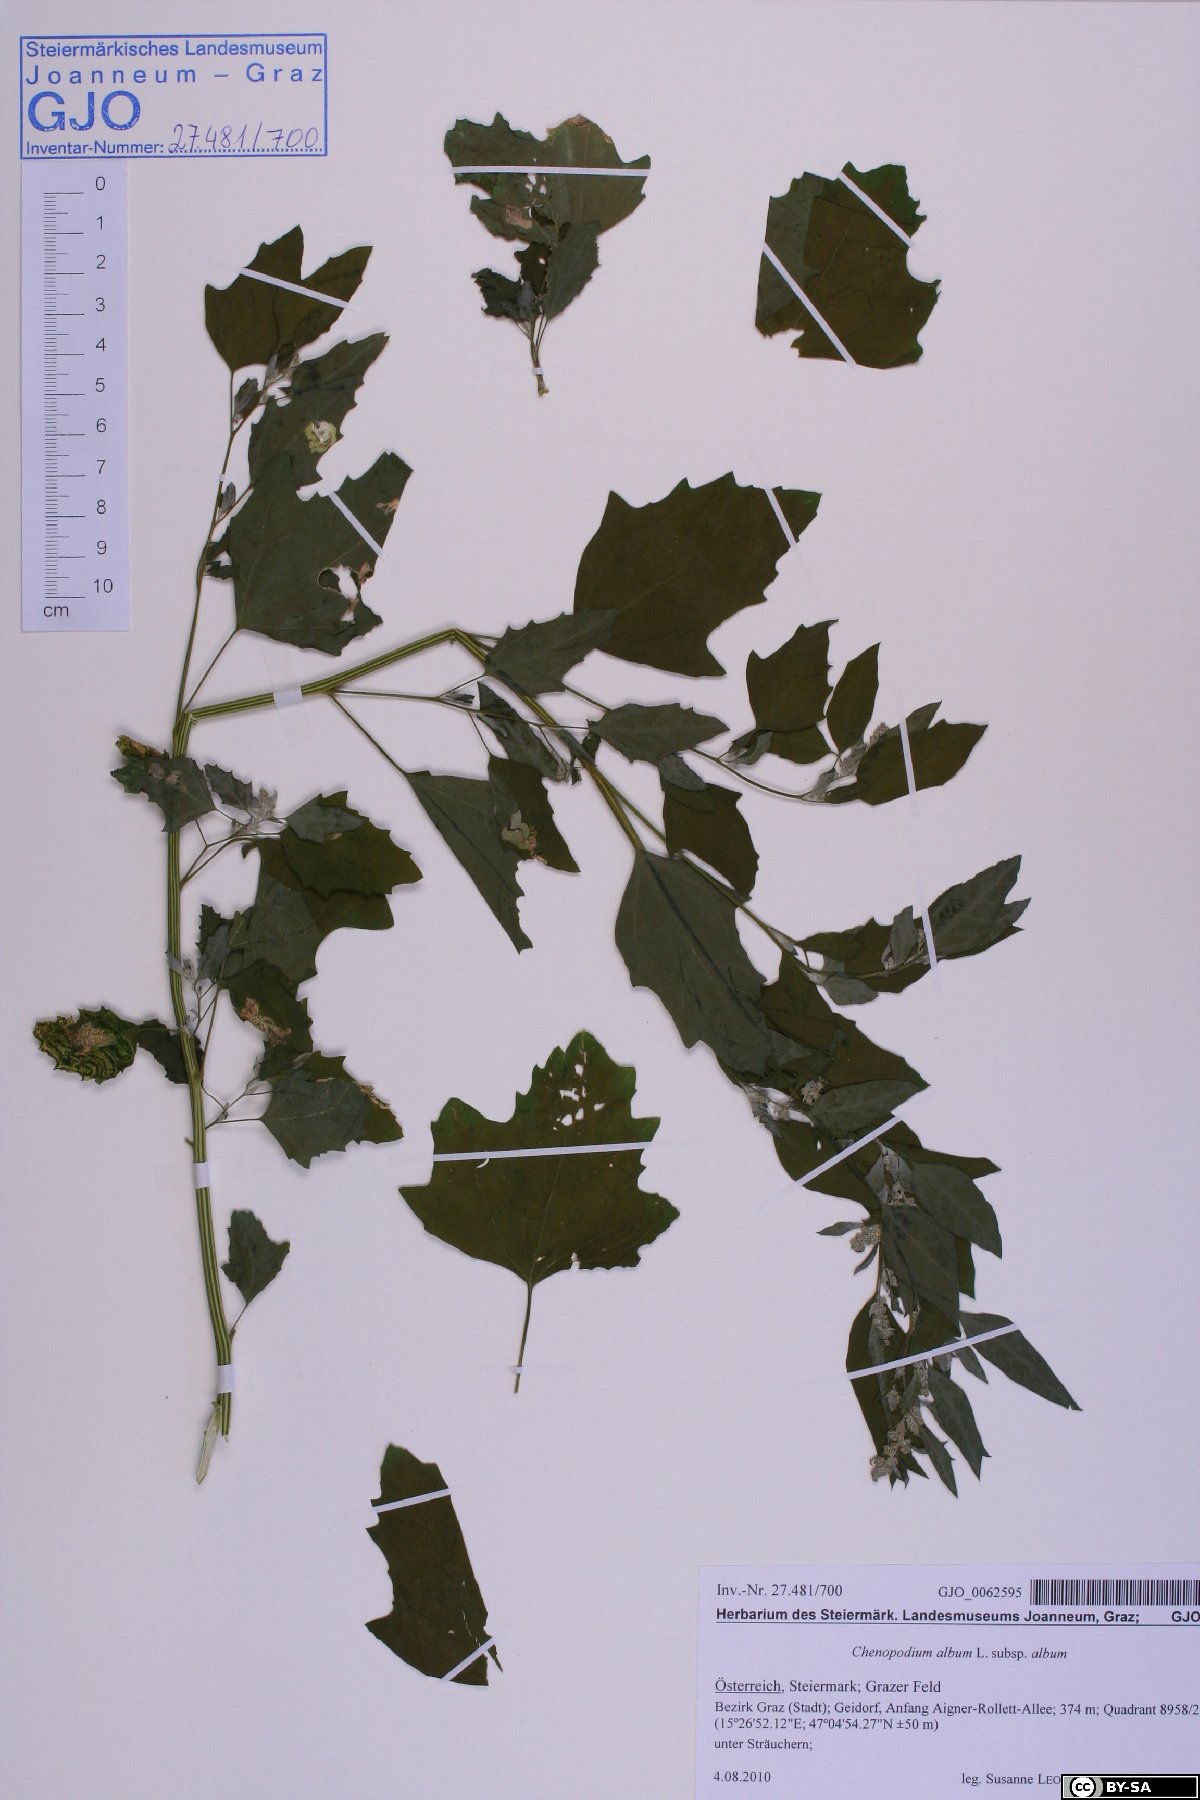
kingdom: Plantae
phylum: Tracheophyta
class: Magnoliopsida
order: Caryophyllales
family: Amaranthaceae
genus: Chenopodium
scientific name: Chenopodium album
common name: Fat-hen
